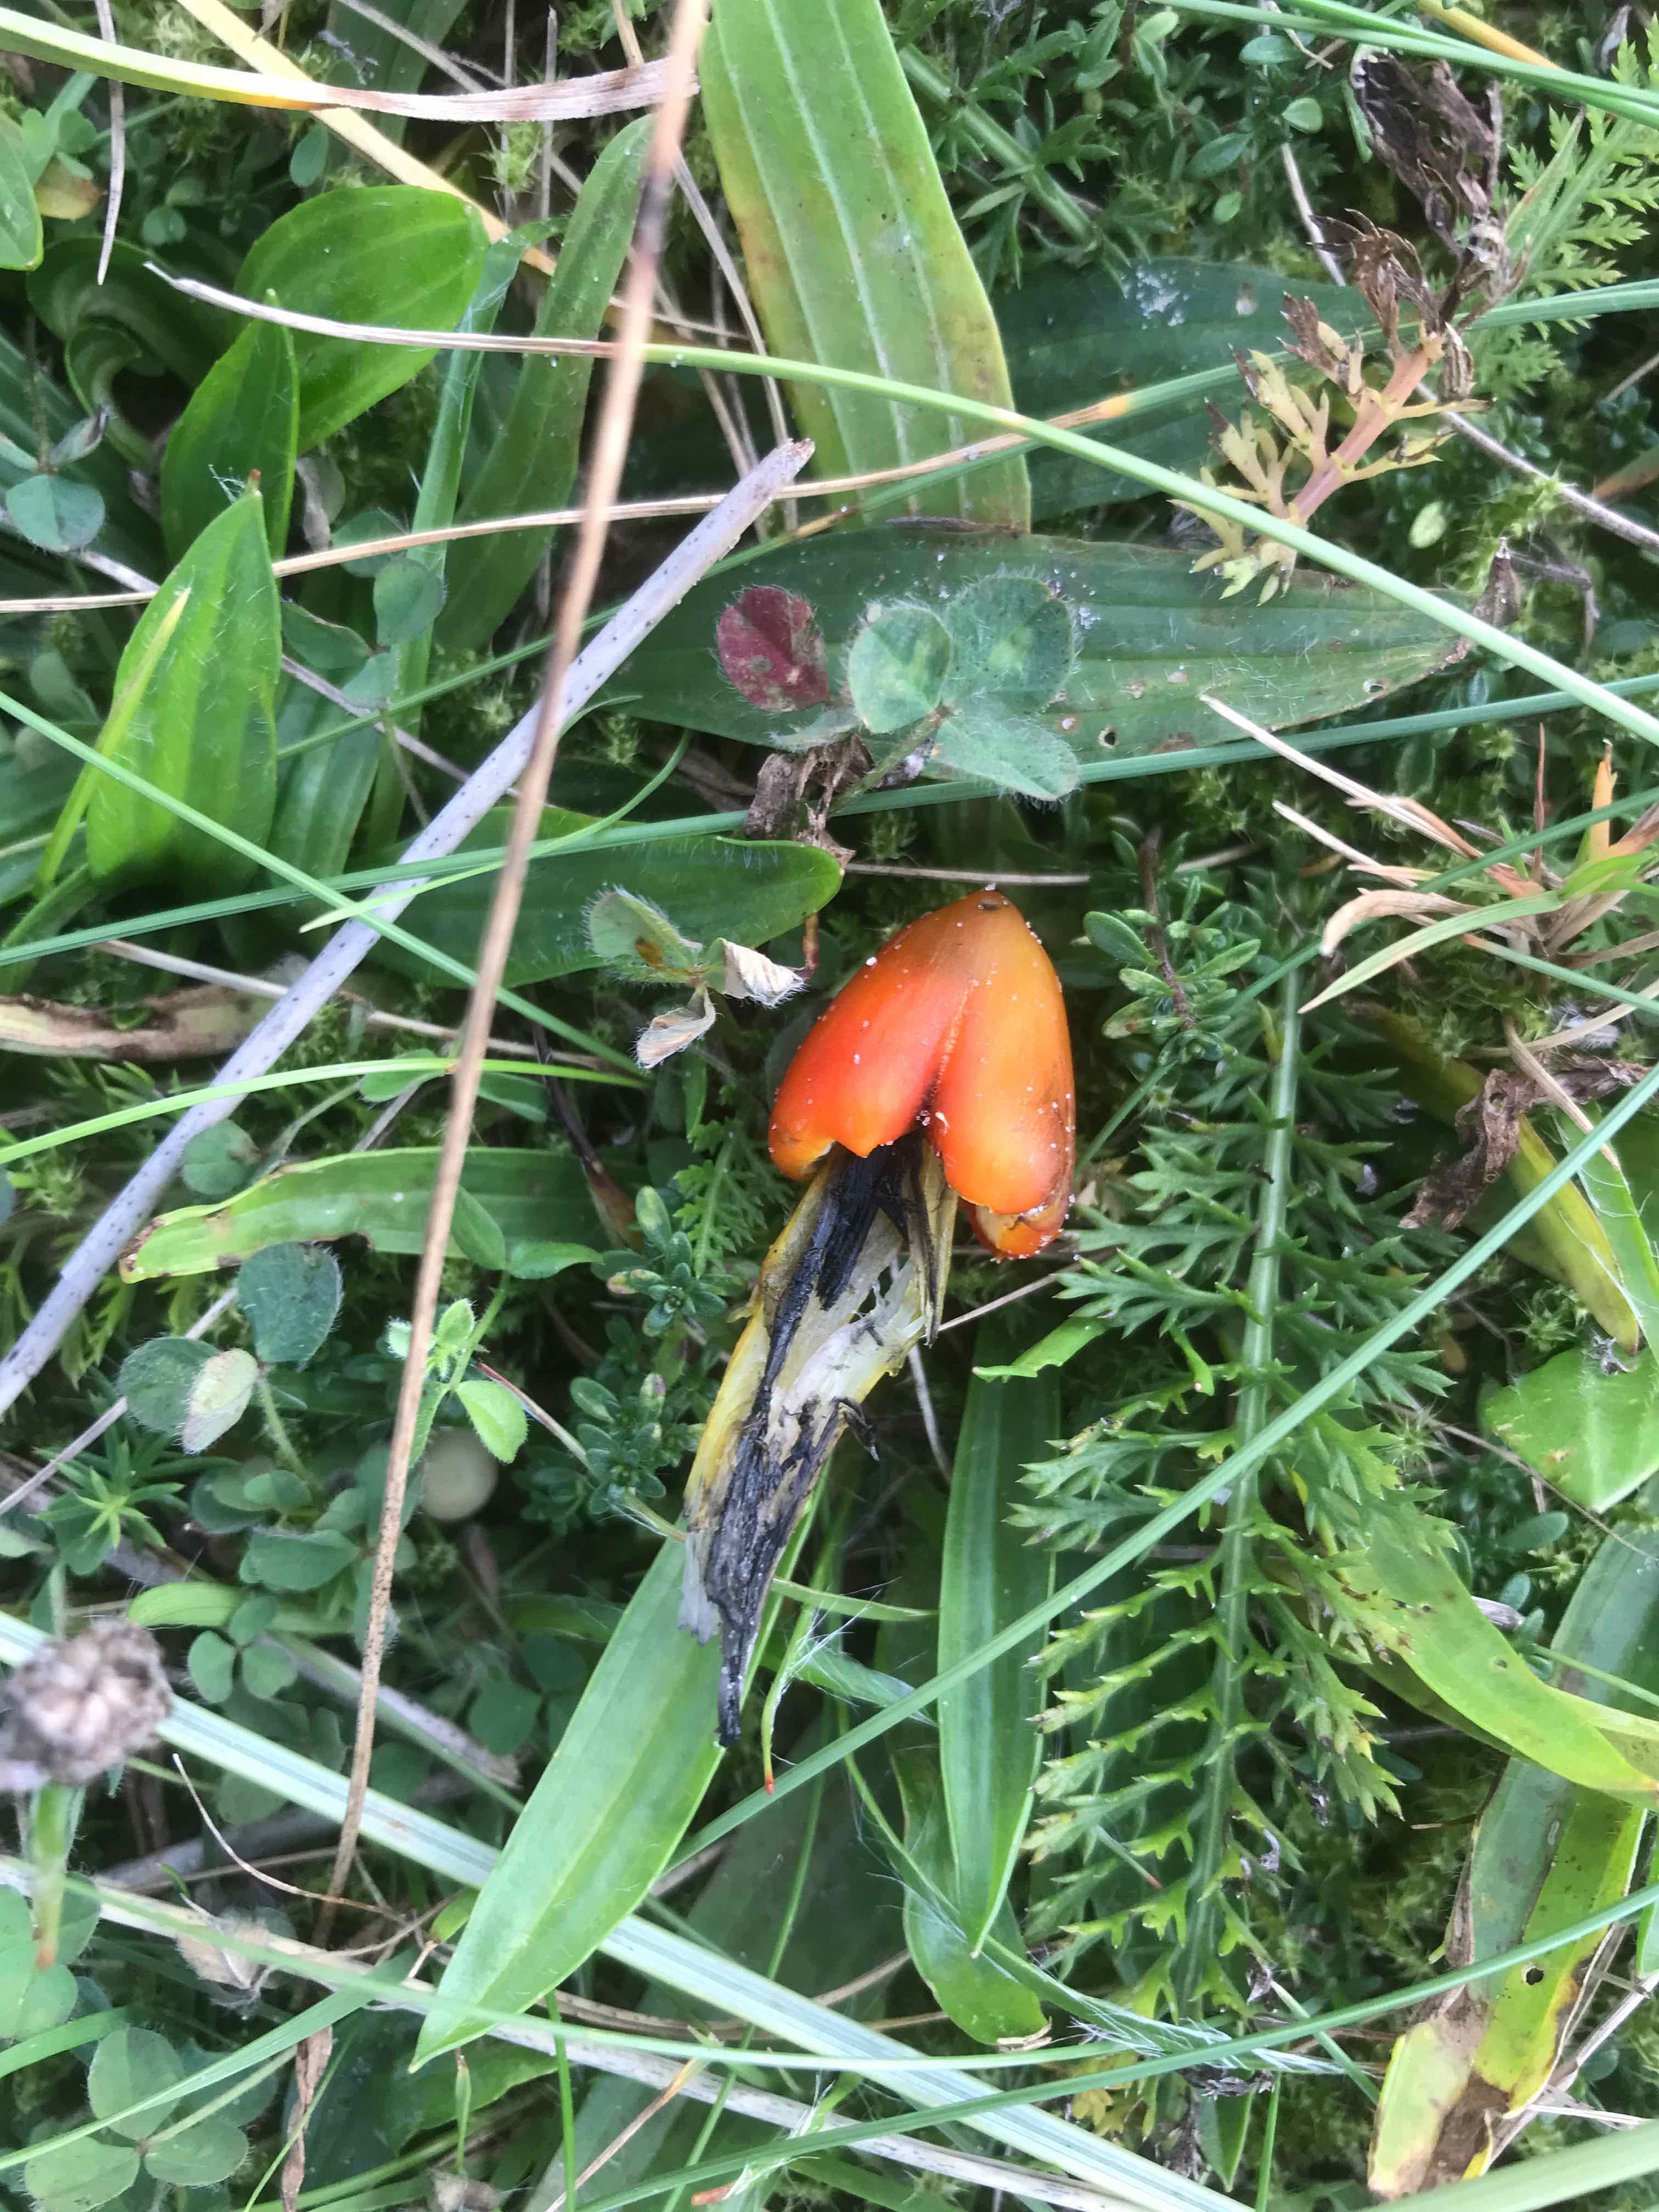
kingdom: Fungi
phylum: Basidiomycota
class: Agaricomycetes
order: Agaricales
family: Hygrophoraceae
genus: Hygrocybe
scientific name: Hygrocybe conica
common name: kegle-vokshat
